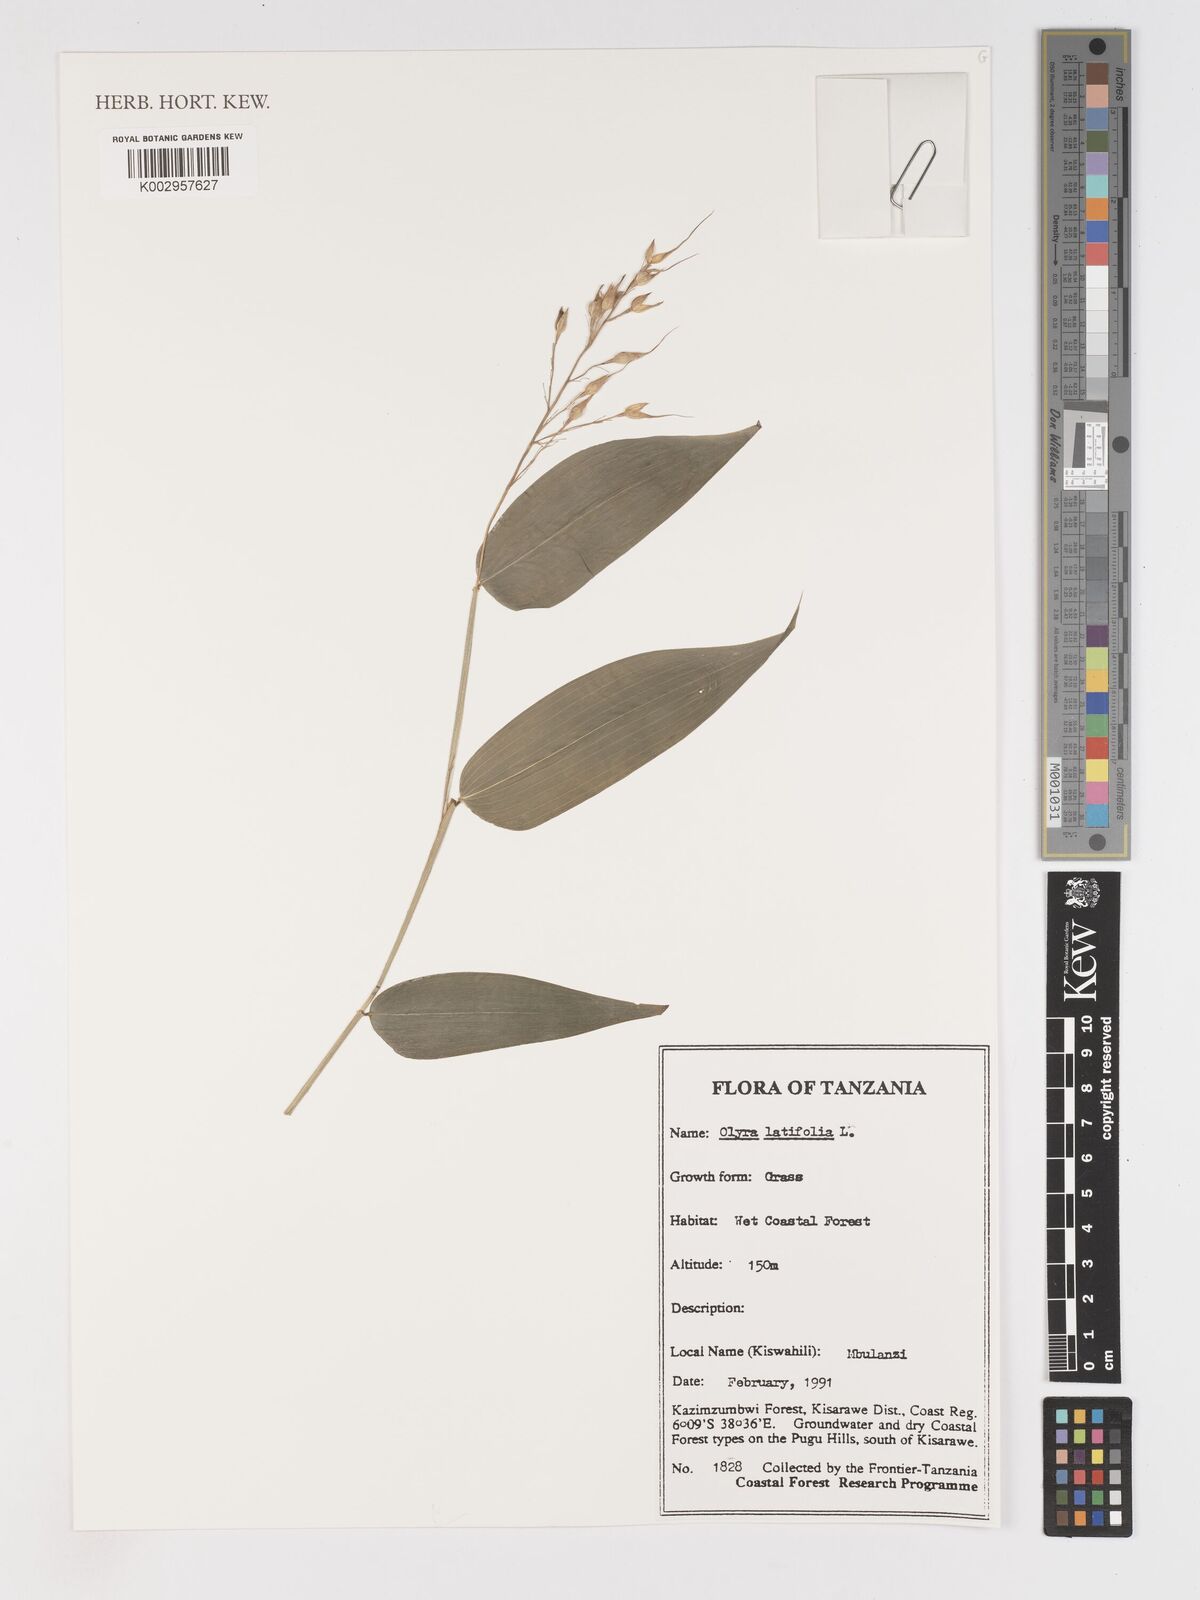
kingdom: Plantae
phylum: Tracheophyta
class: Liliopsida
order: Poales
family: Poaceae
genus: Olyra
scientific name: Olyra latifolia
